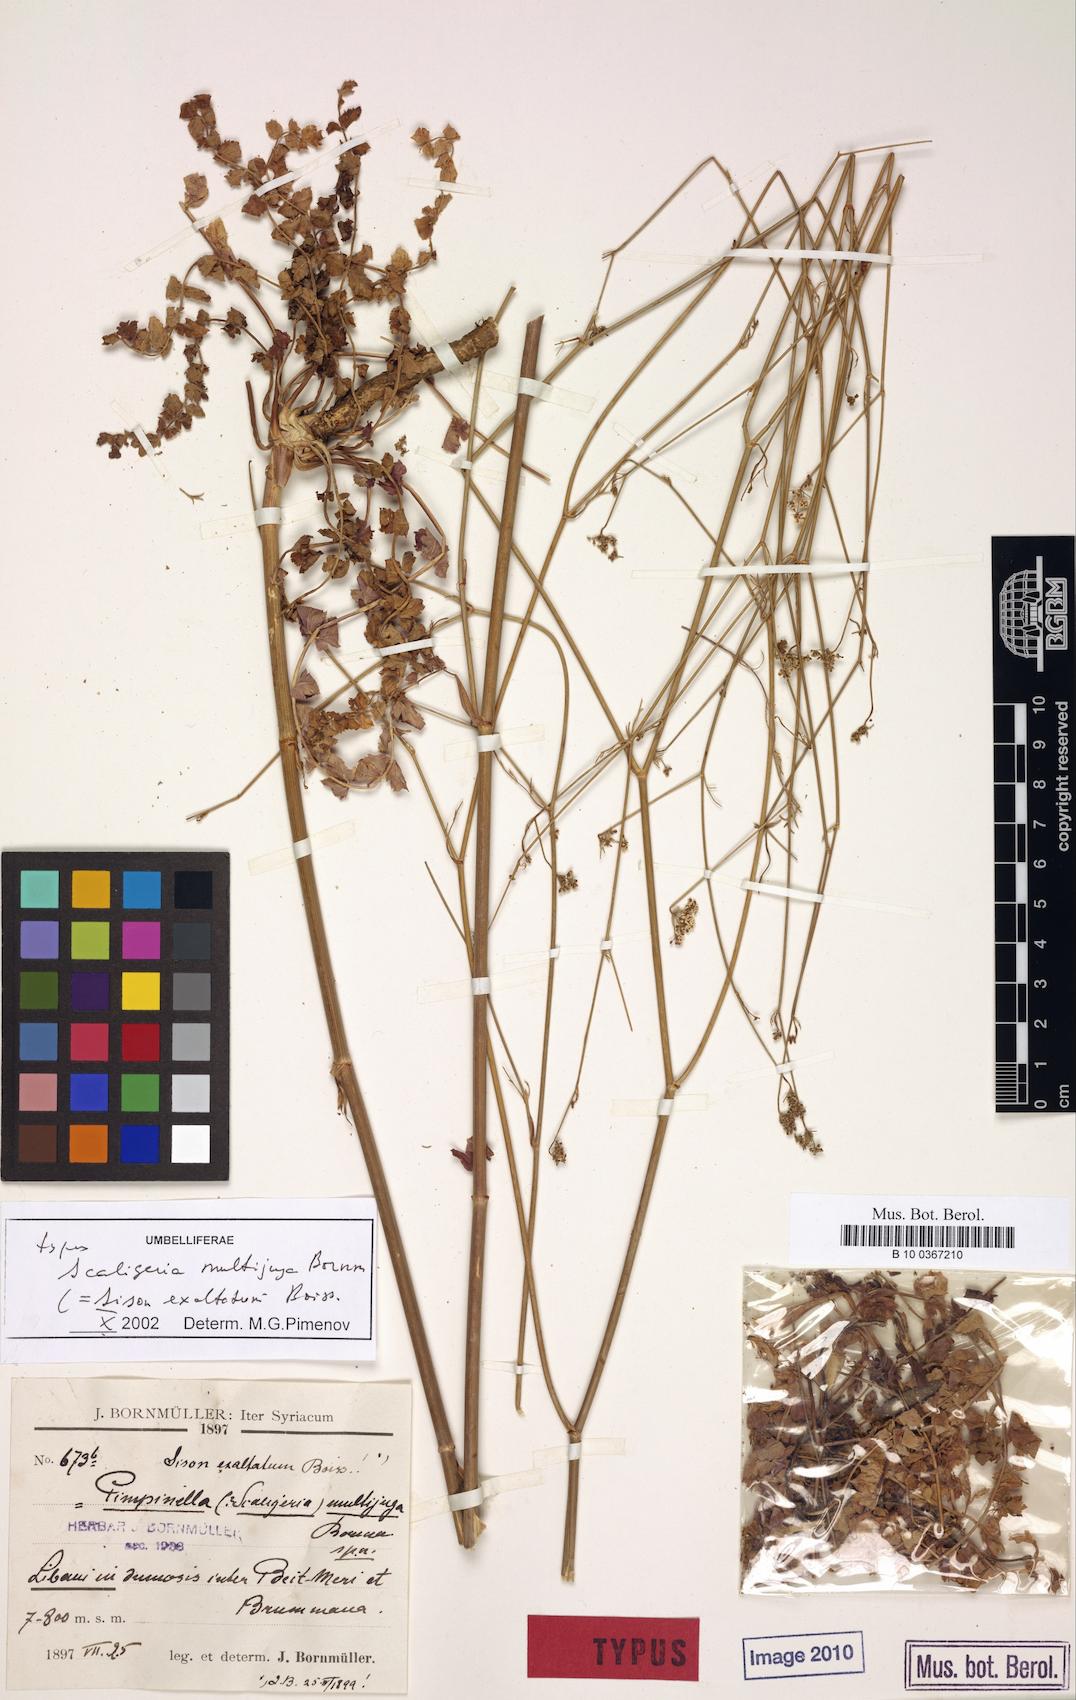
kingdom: Plantae
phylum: Tracheophyta
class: Magnoliopsida
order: Apiales
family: Apiaceae
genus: Sison
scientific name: Sison exaltatum
